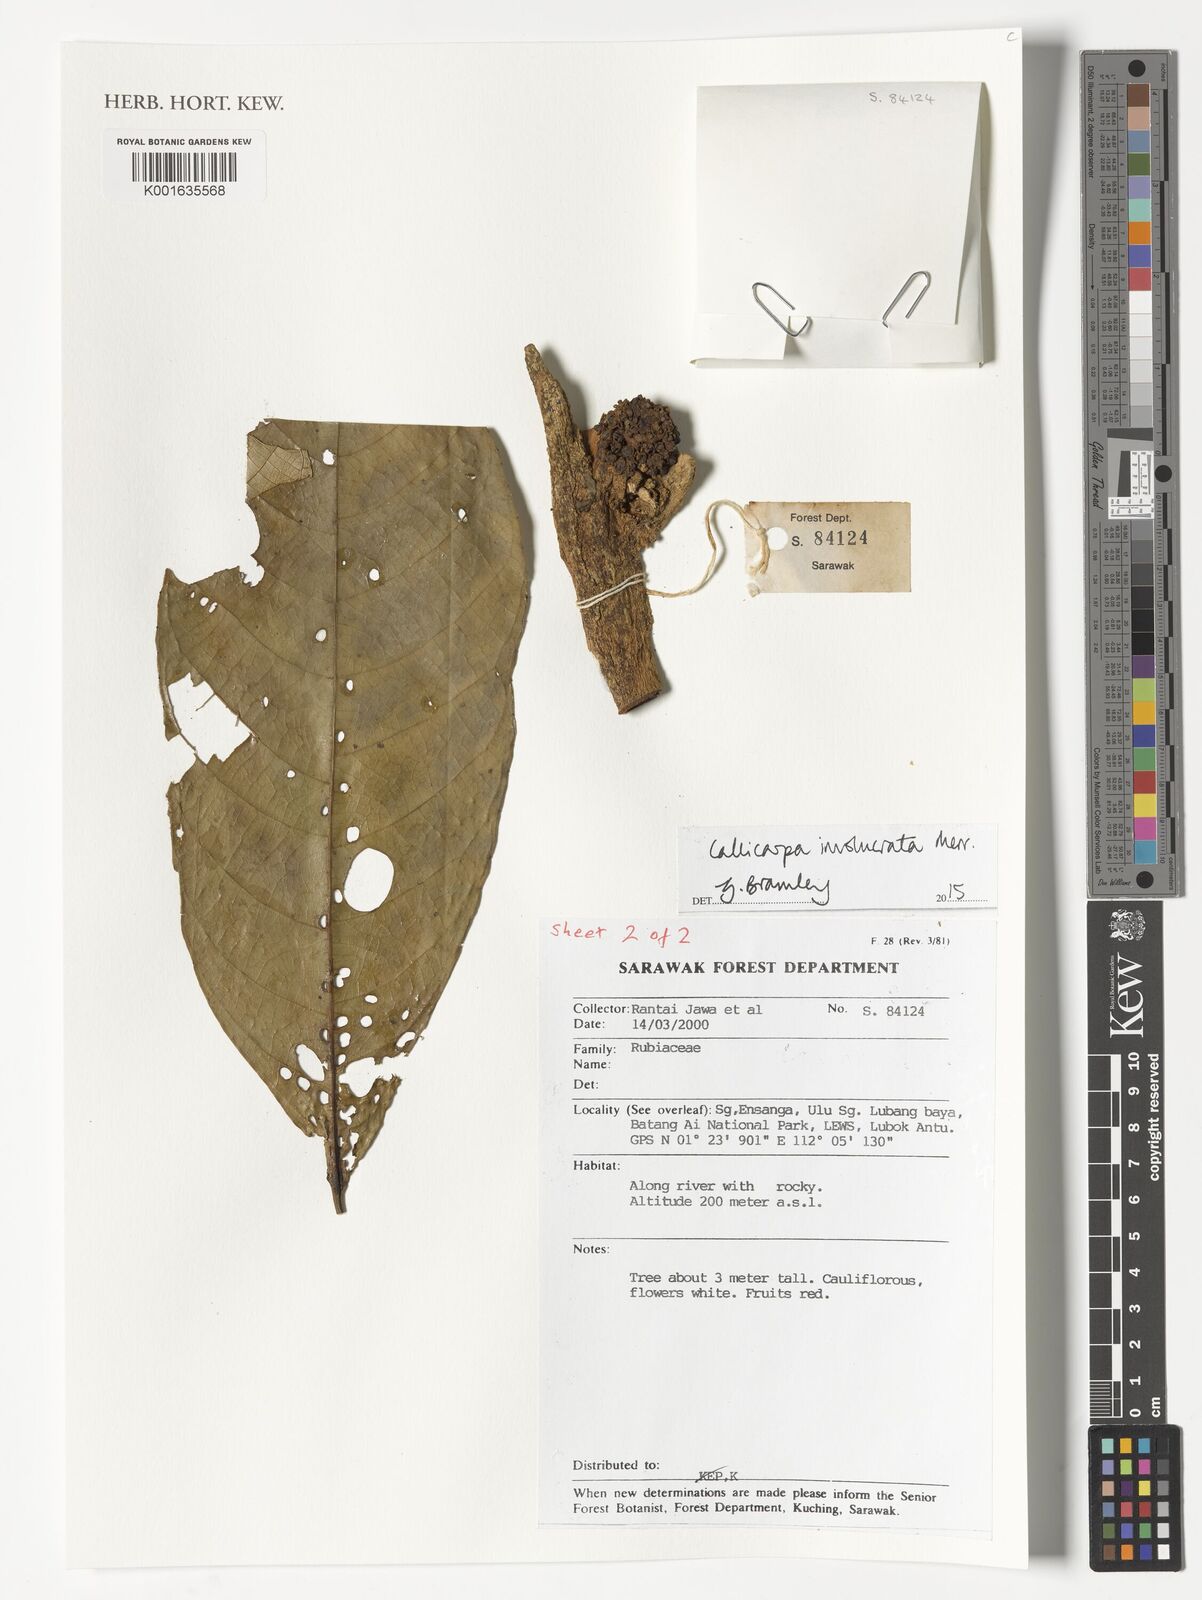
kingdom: Plantae
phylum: Tracheophyta
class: Magnoliopsida
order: Lamiales
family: Lamiaceae
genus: Callicarpa
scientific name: Callicarpa involucrata
